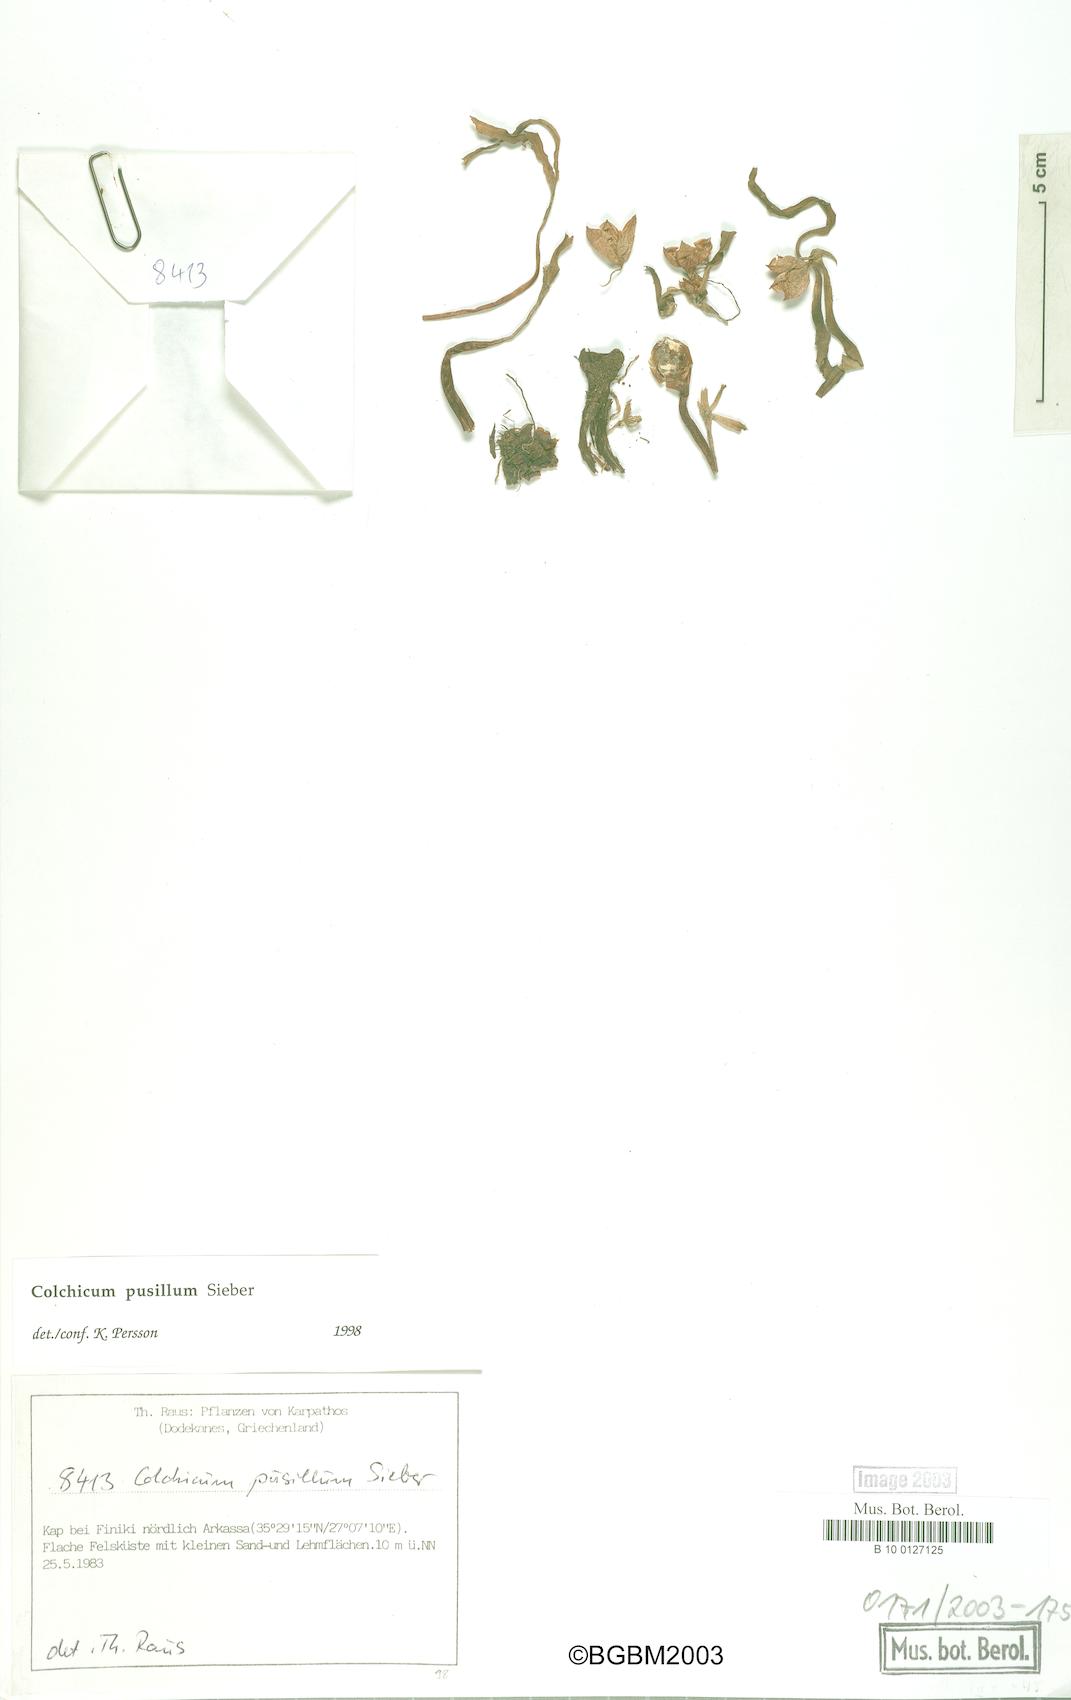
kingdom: Plantae
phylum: Tracheophyta
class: Liliopsida
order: Liliales
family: Colchicaceae
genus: Colchicum
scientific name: Colchicum pusillum
